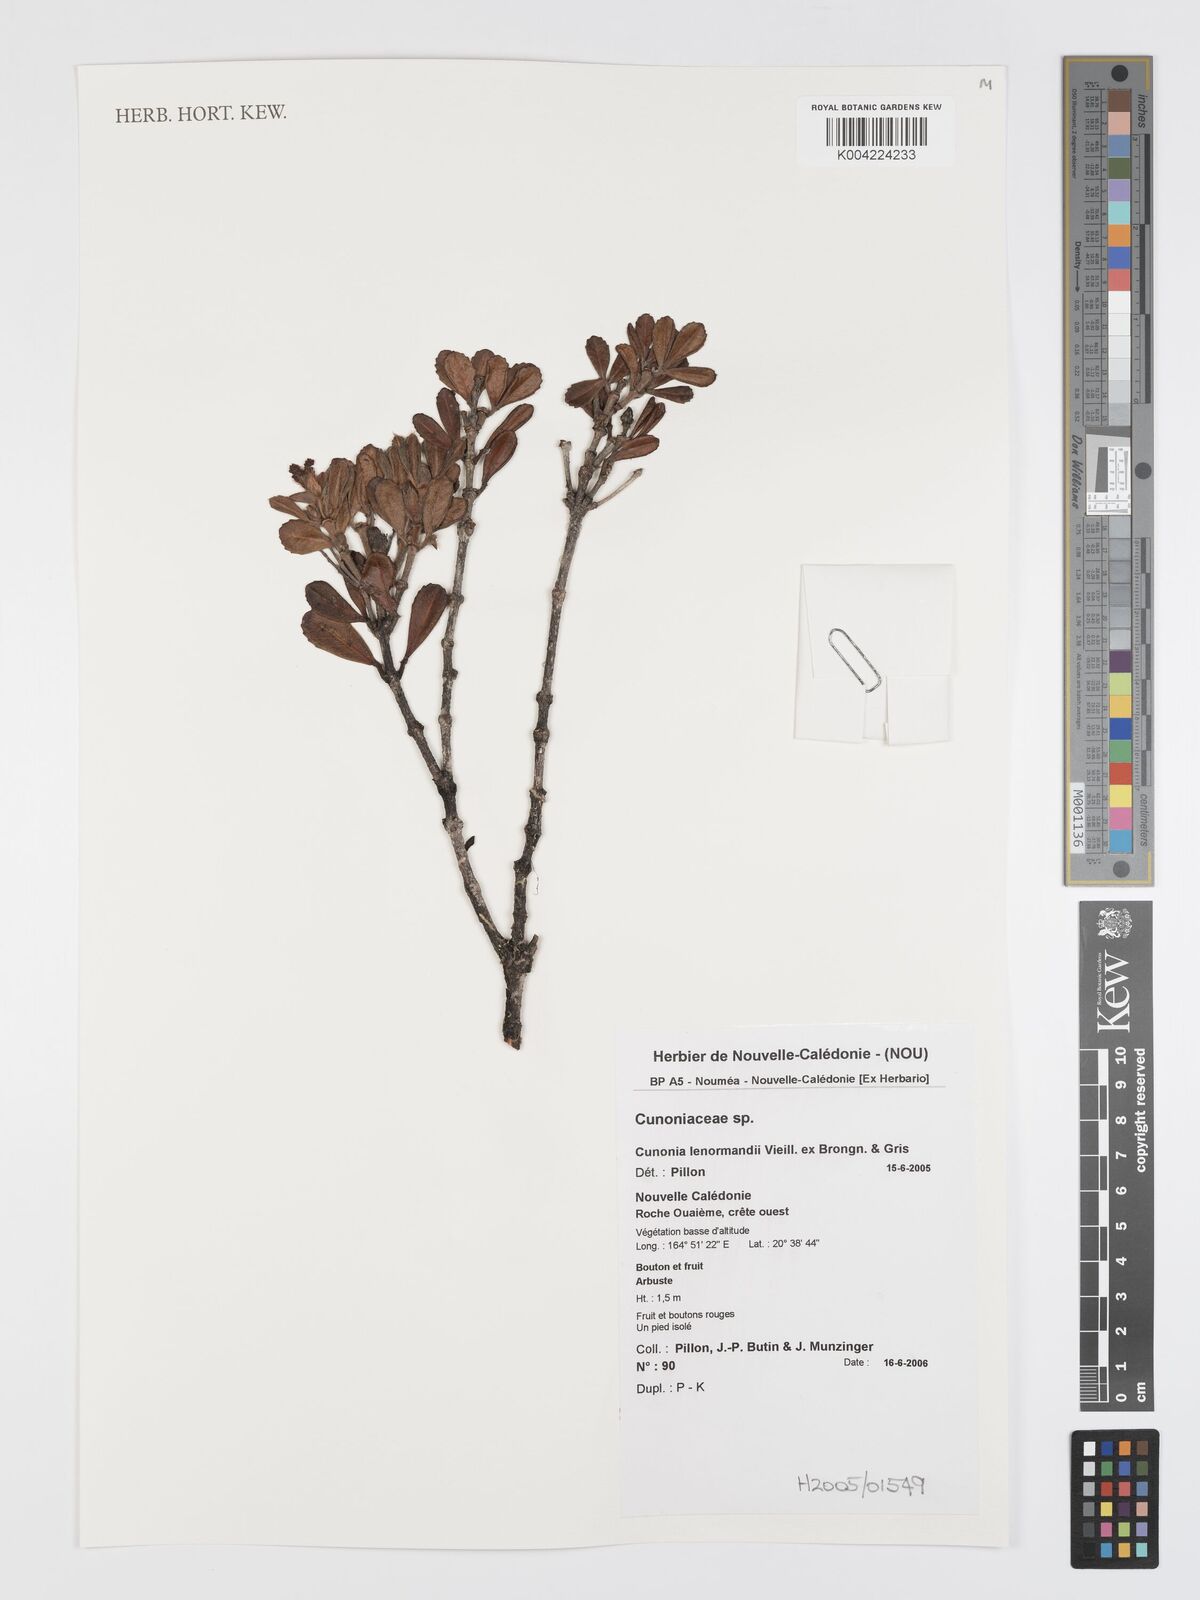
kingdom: Plantae
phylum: Tracheophyta
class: Magnoliopsida
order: Oxalidales
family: Cunoniaceae
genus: Cunonia
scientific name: Cunonia lenormandii
